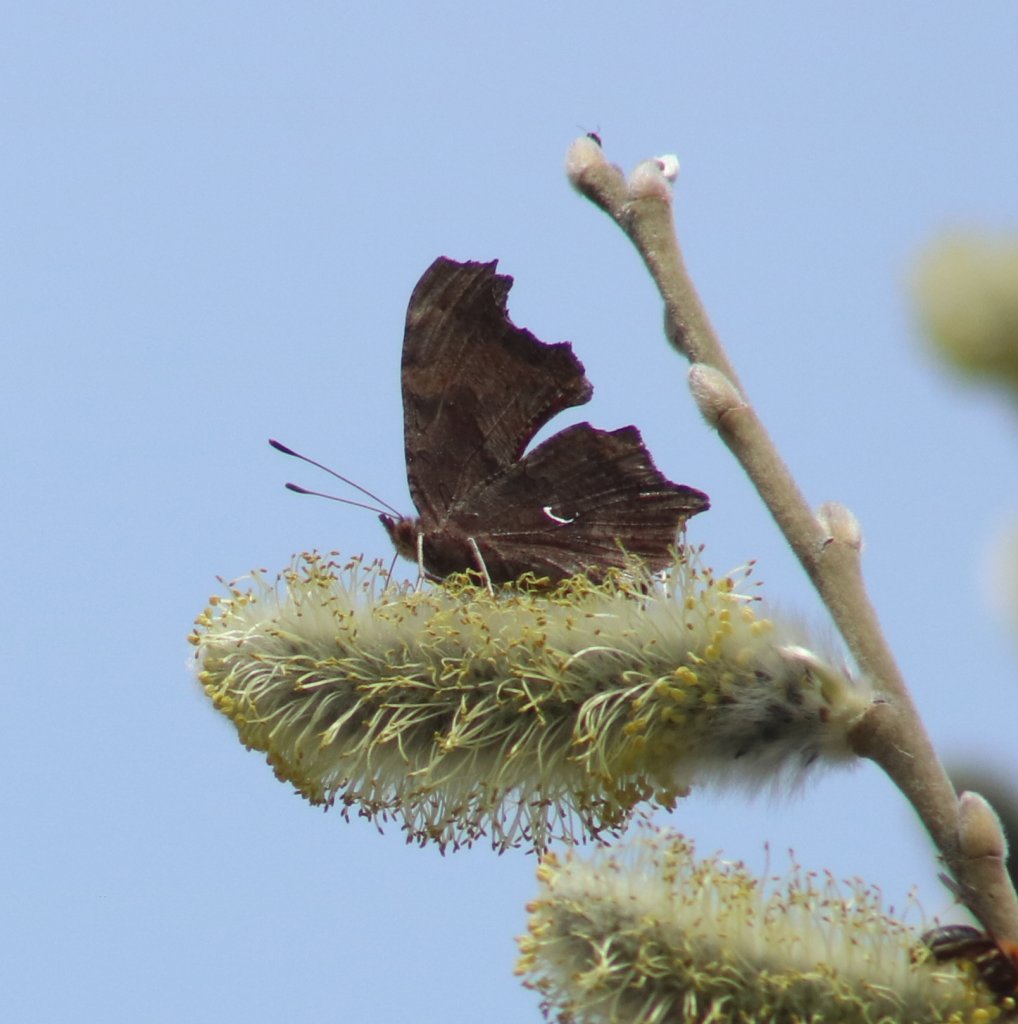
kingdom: Animalia
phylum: Arthropoda
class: Insecta
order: Lepidoptera
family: Nymphalidae
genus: Polygonia
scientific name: Polygonia comma
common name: Eastern Comma
